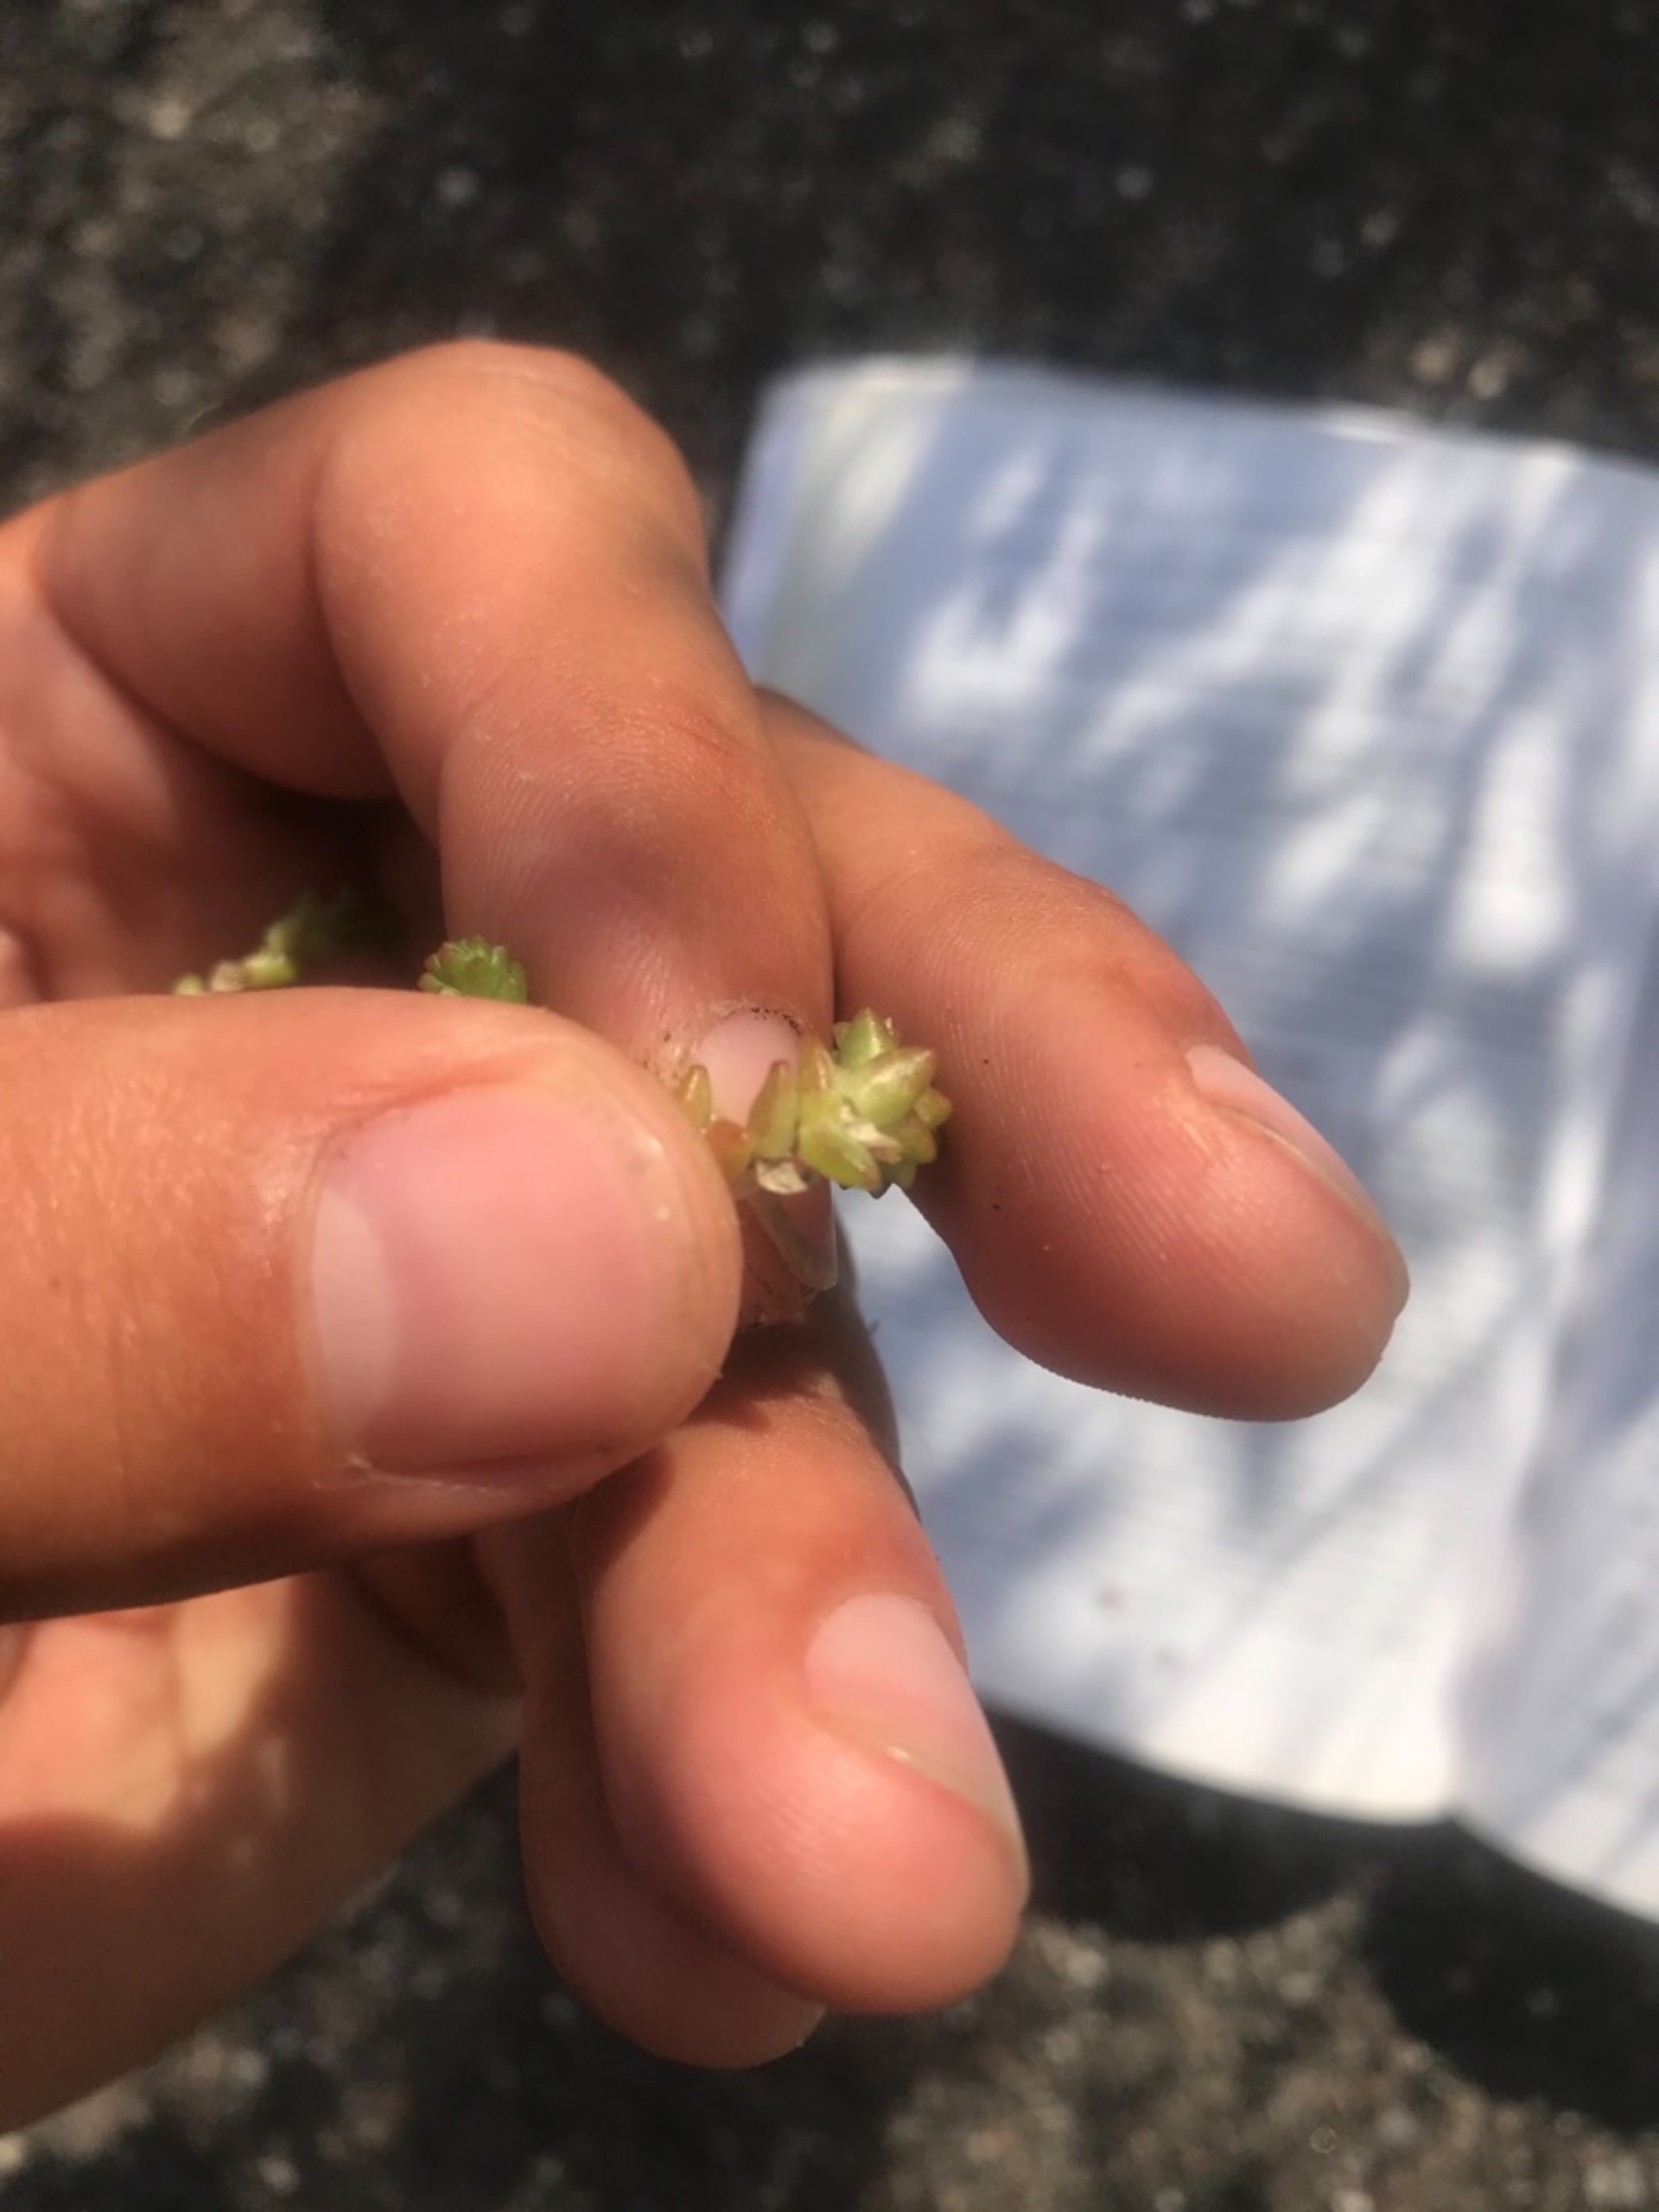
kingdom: Plantae
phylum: Tracheophyta
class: Magnoliopsida
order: Saxifragales
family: Crassulaceae
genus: Sedum
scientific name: Sedum acre
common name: Bidende stenurt
